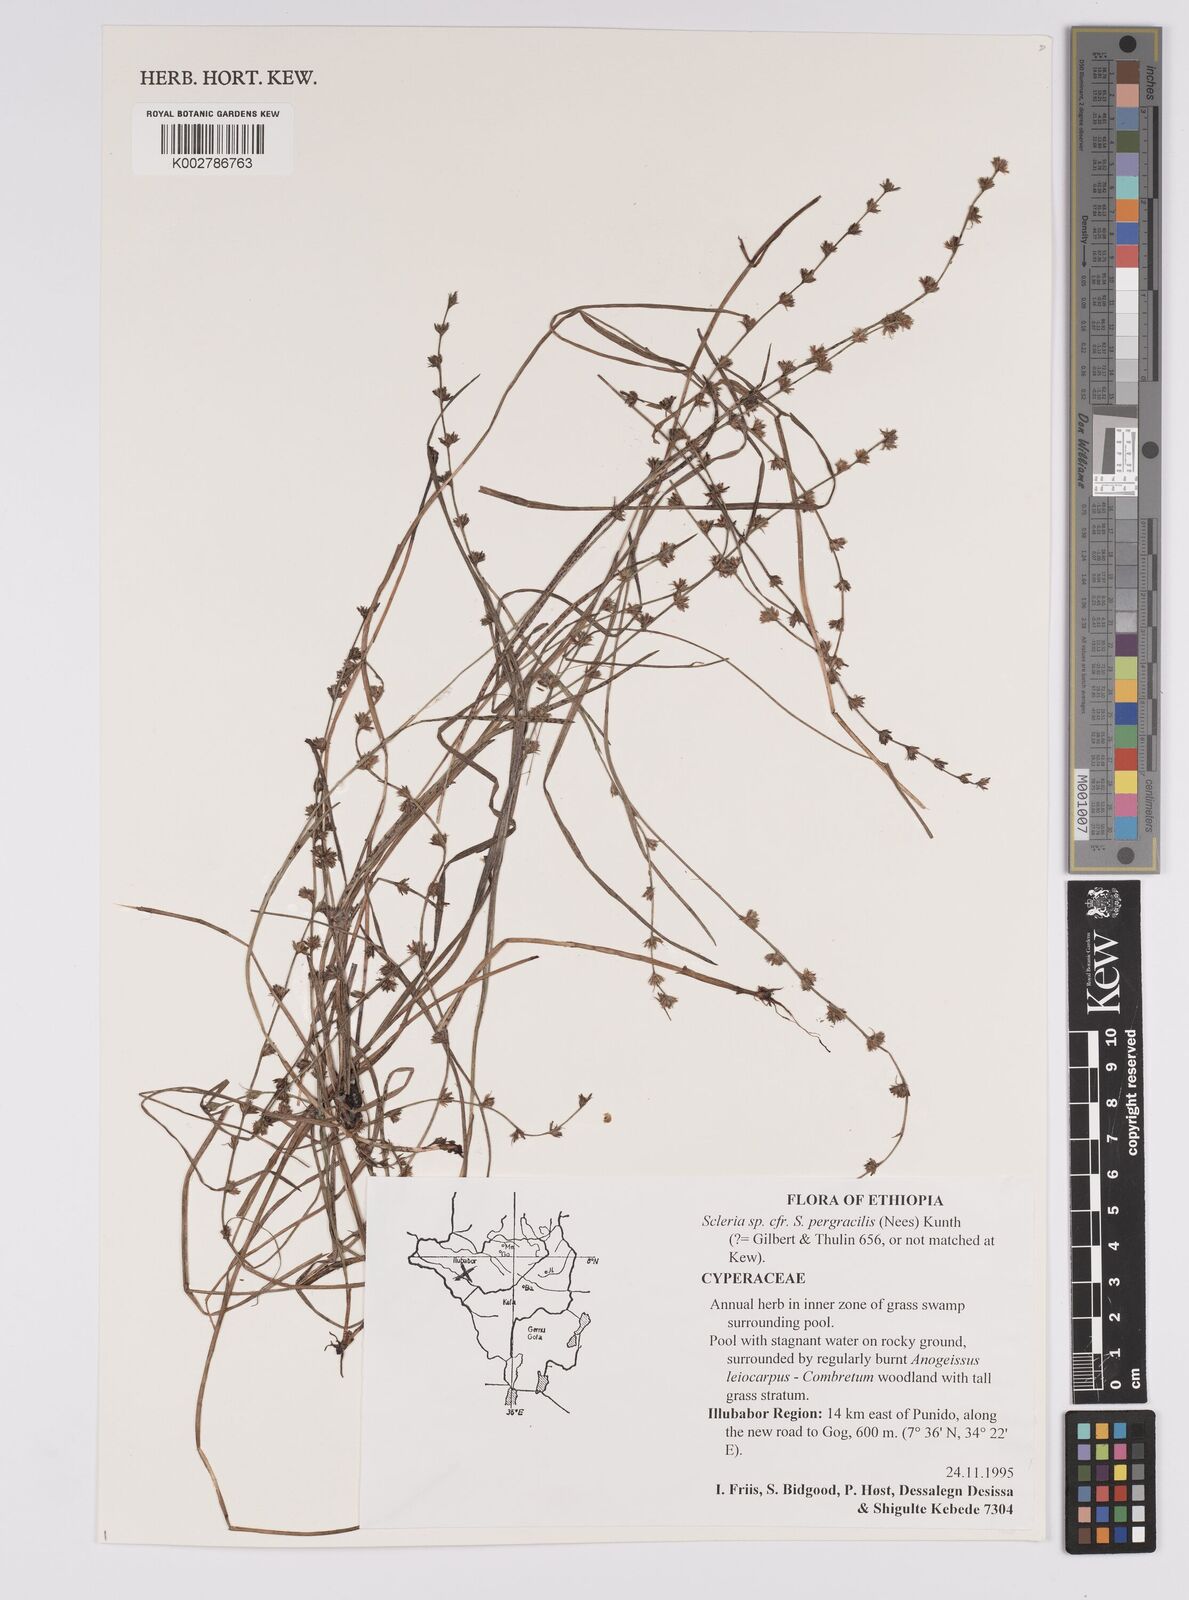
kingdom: Plantae
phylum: Tracheophyta
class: Liliopsida
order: Poales
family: Cyperaceae
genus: Scleria
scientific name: Scleria pergracilis
